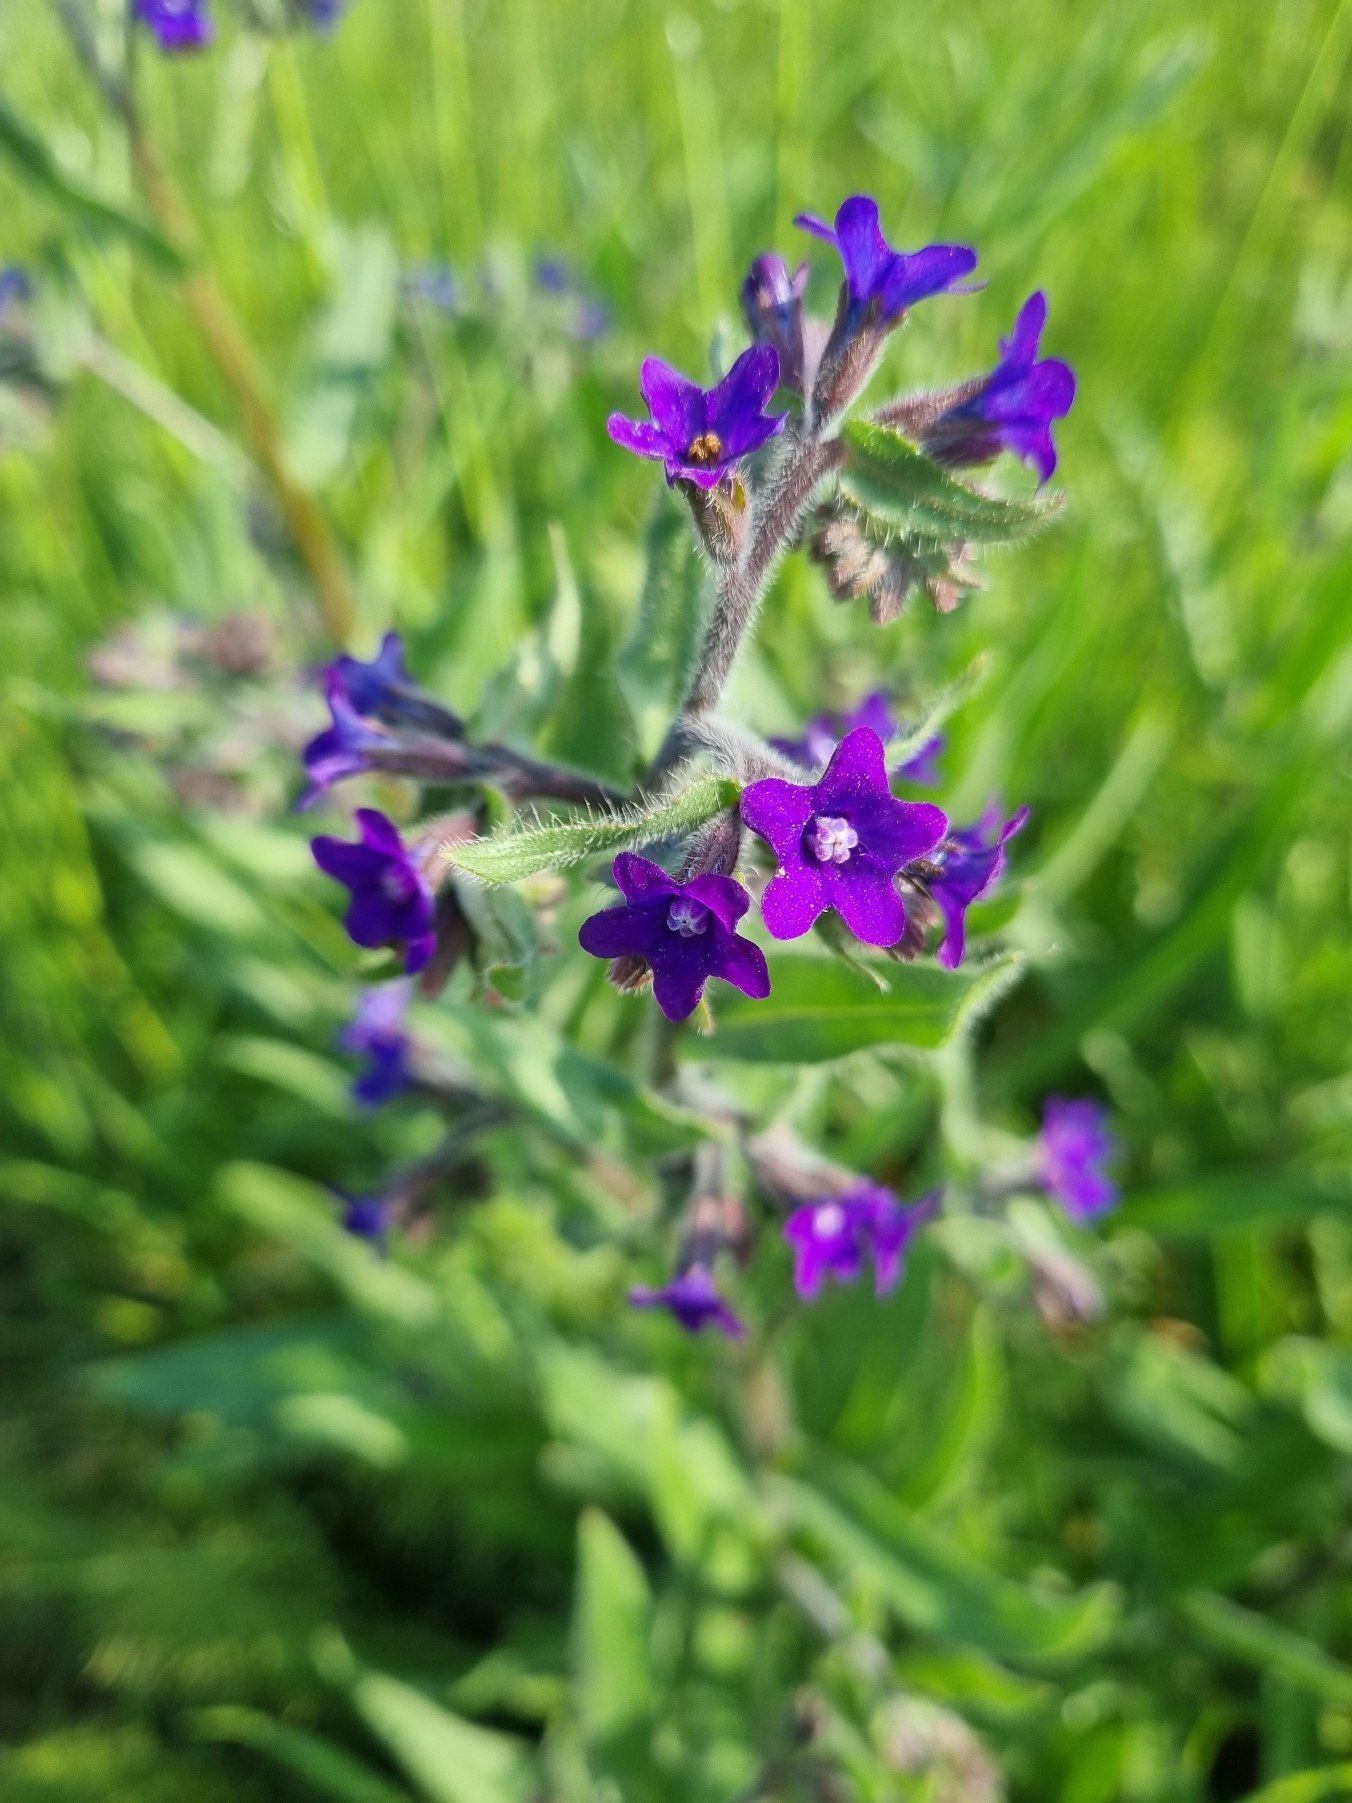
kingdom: Plantae
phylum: Tracheophyta
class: Magnoliopsida
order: Boraginales
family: Boraginaceae
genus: Anchusa
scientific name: Anchusa officinalis
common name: Læge-oksetunge
